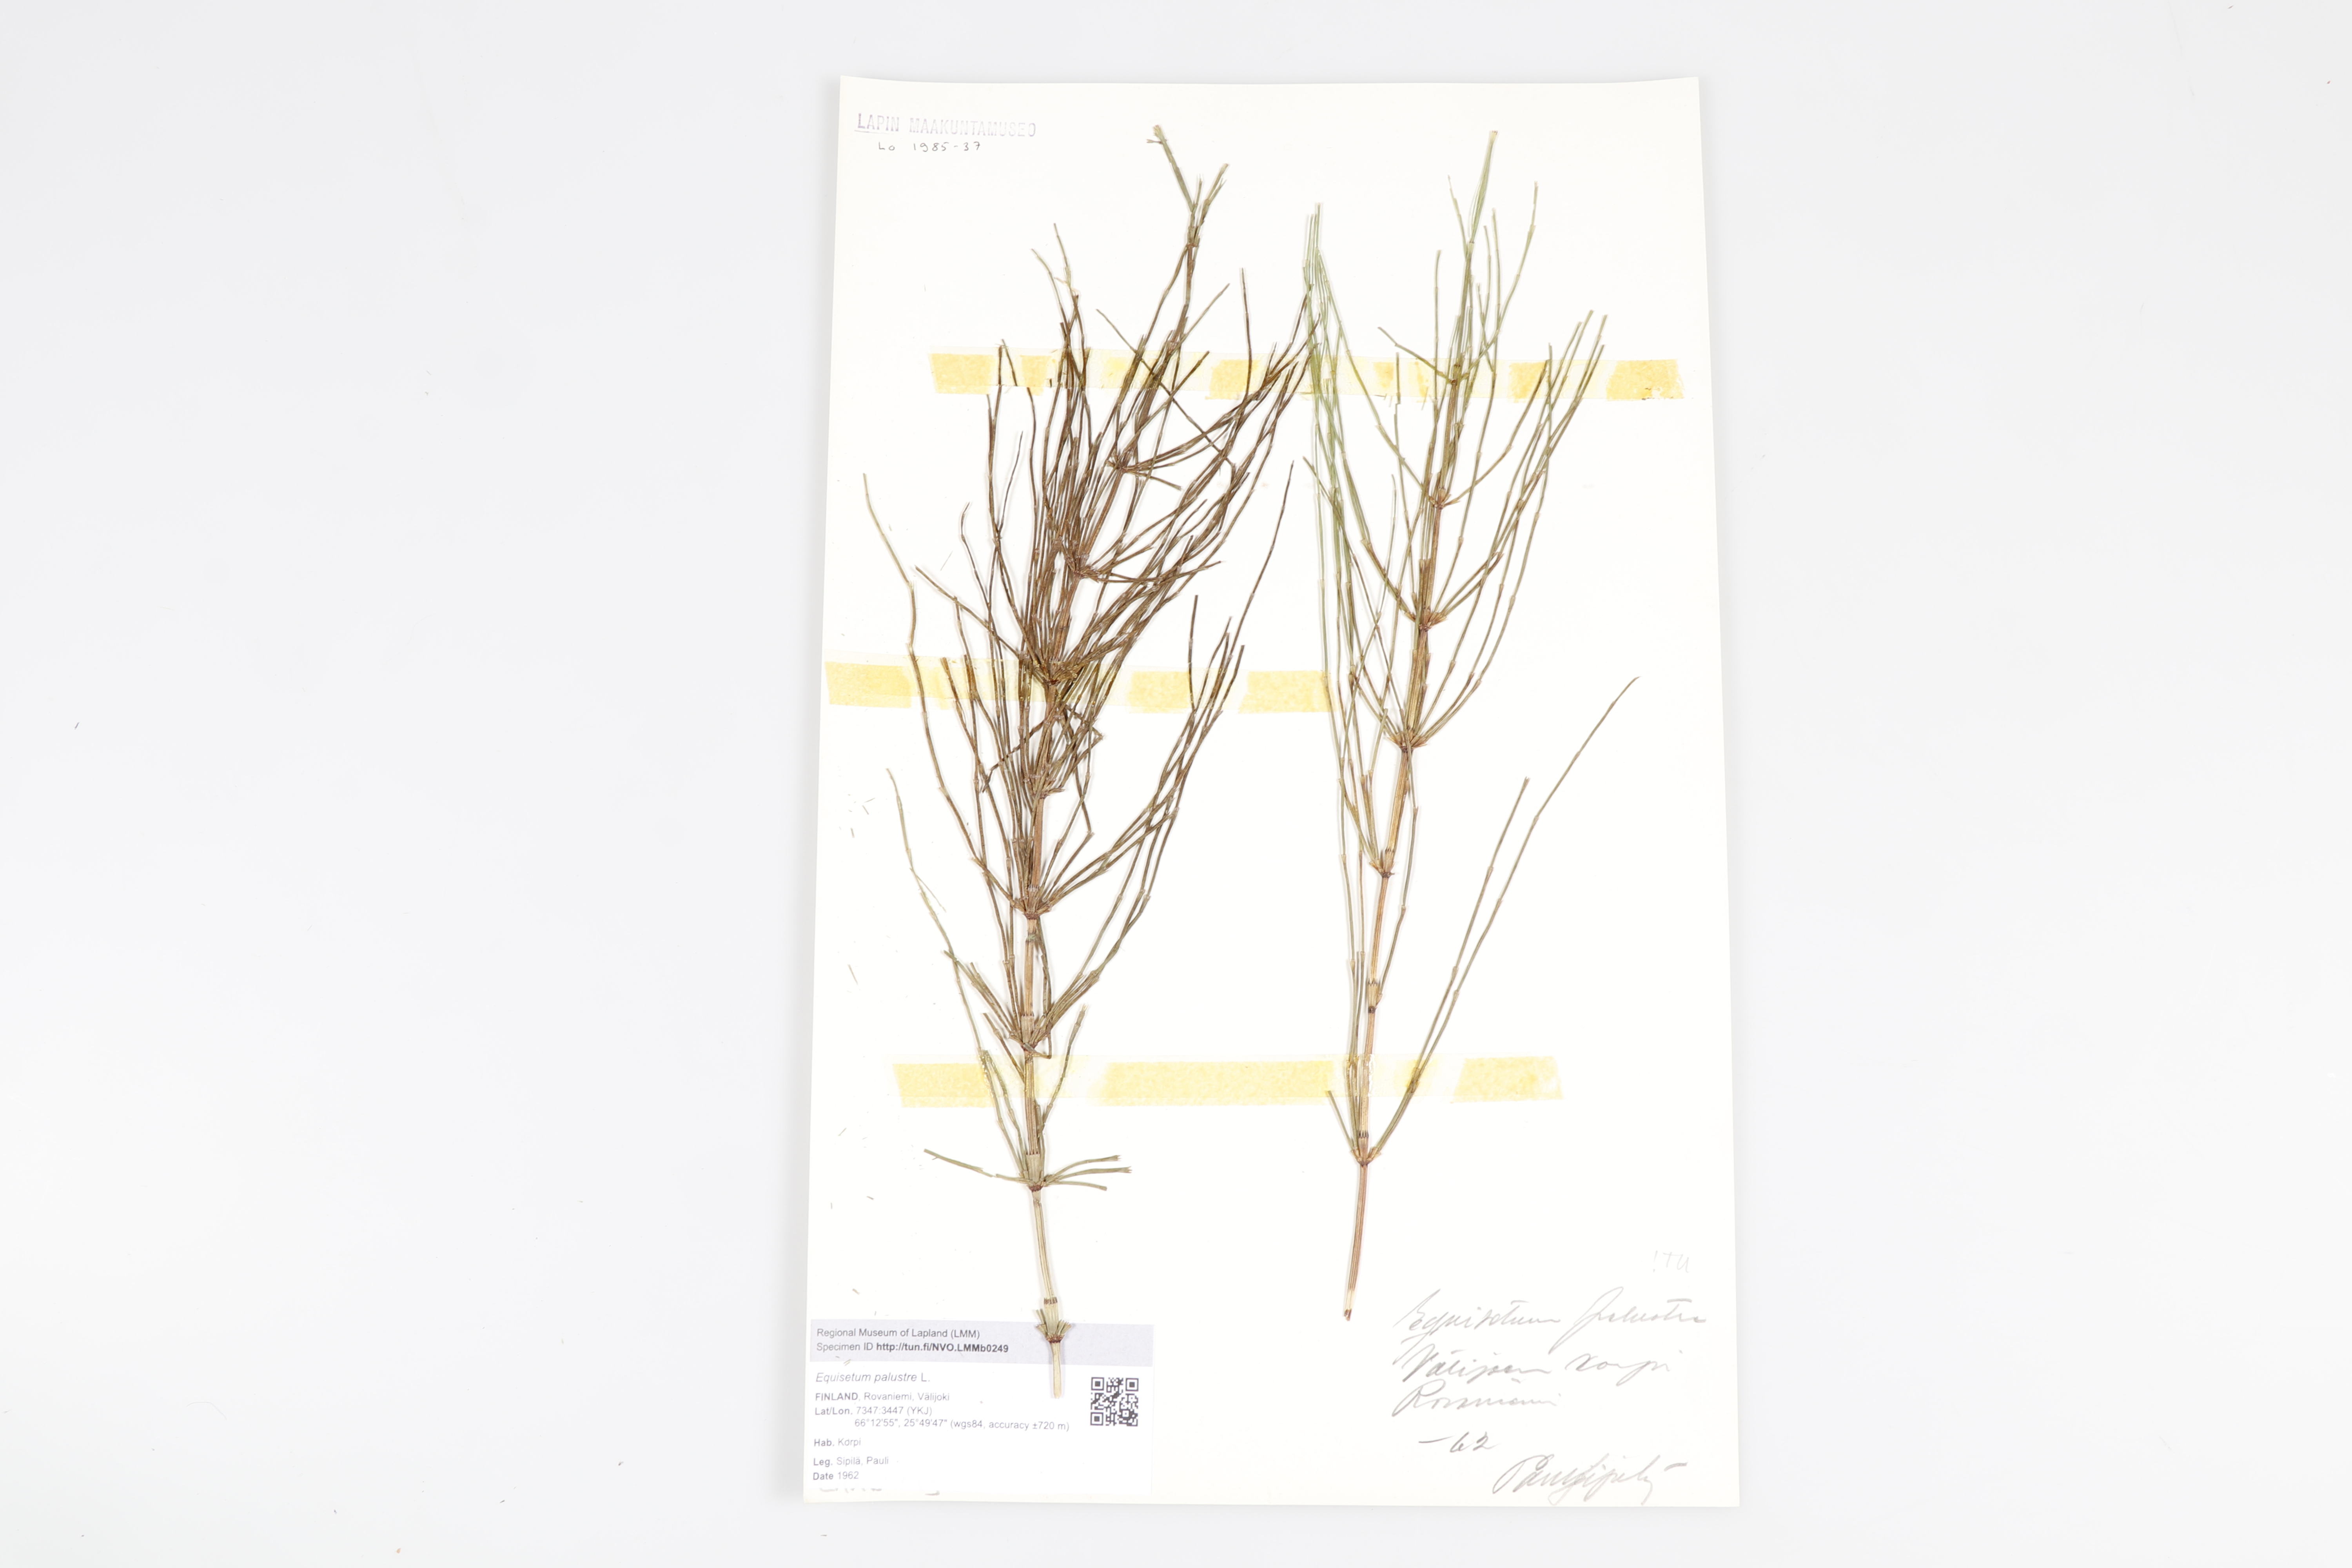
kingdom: Plantae
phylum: Tracheophyta
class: Polypodiopsida
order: Equisetales
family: Equisetaceae
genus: Equisetum
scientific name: Equisetum palustre
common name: Marsh horsetail
